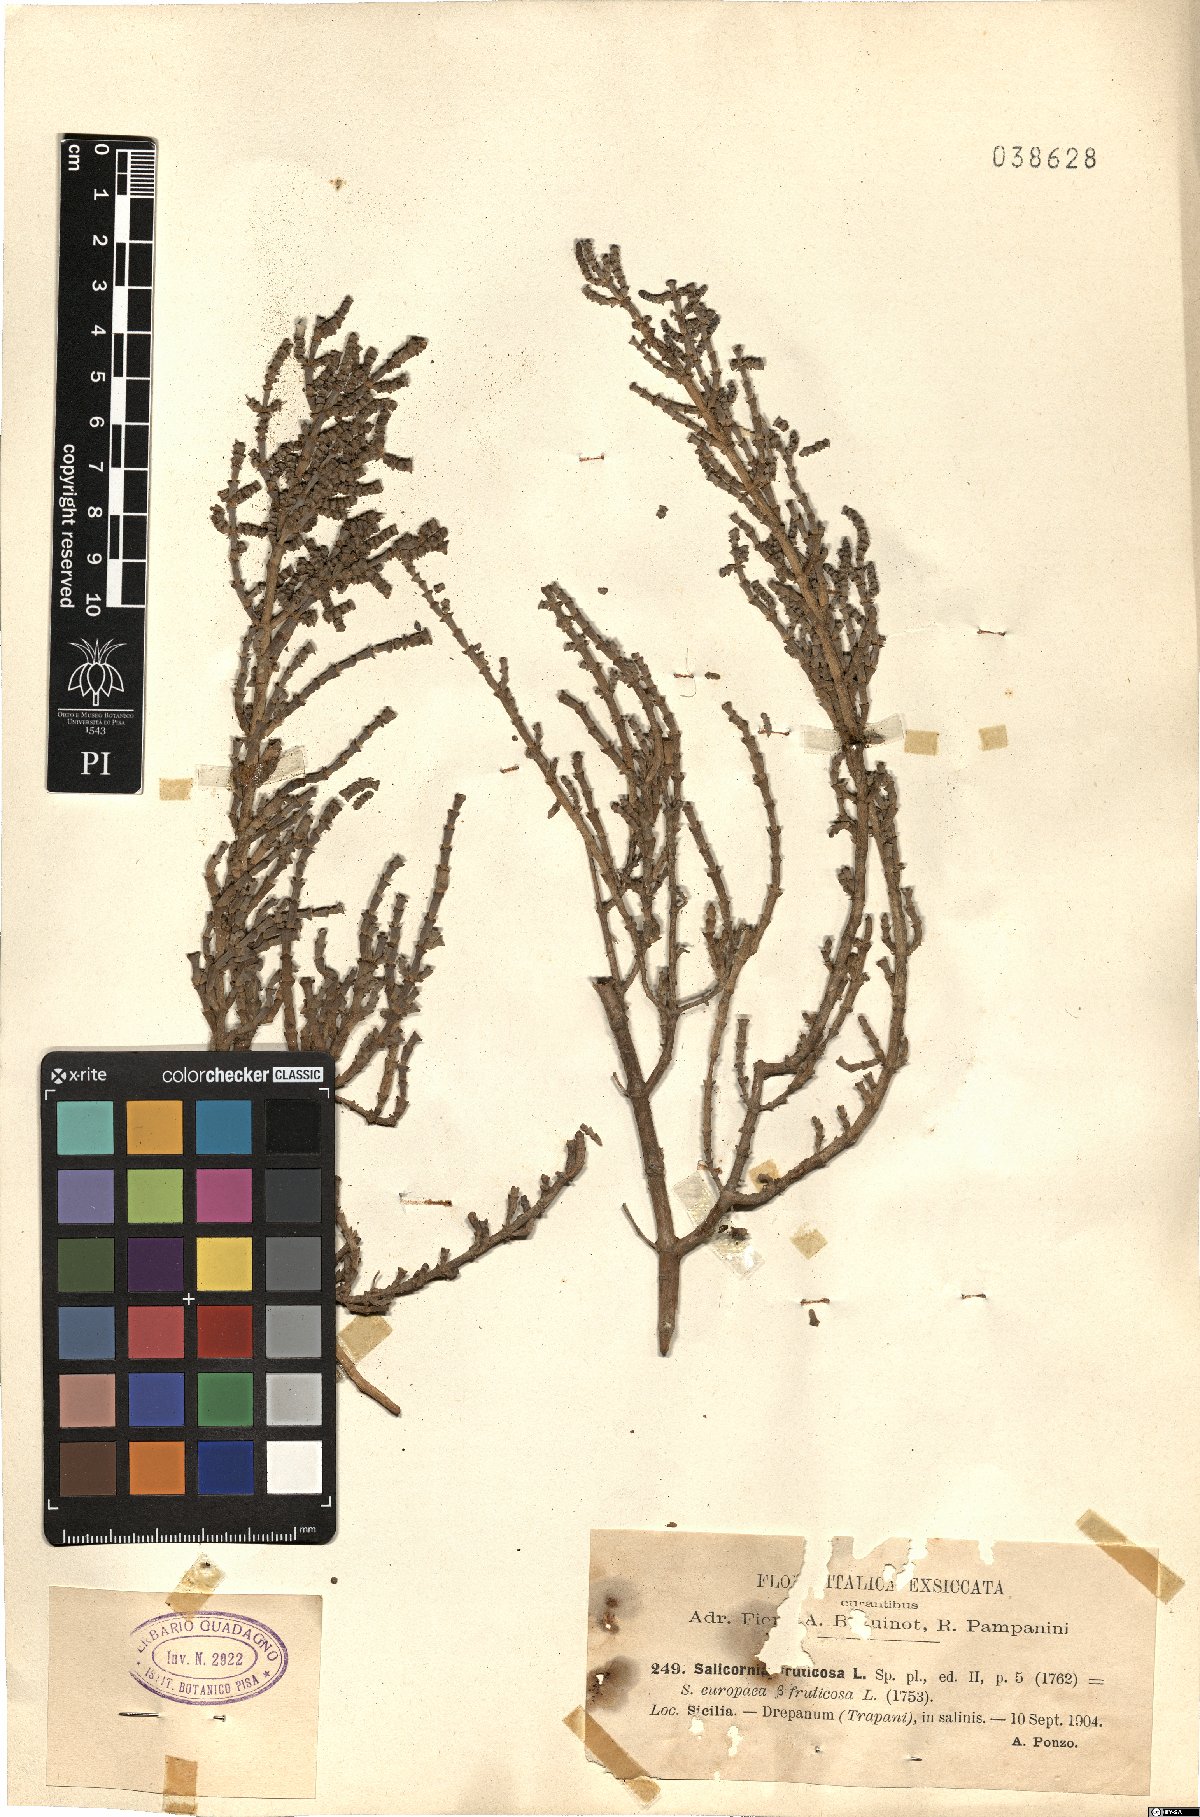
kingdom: Plantae
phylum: Tracheophyta
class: Magnoliopsida
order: Caryophyllales
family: Amaranthaceae
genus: Salicornia
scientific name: Salicornia fruticosa
